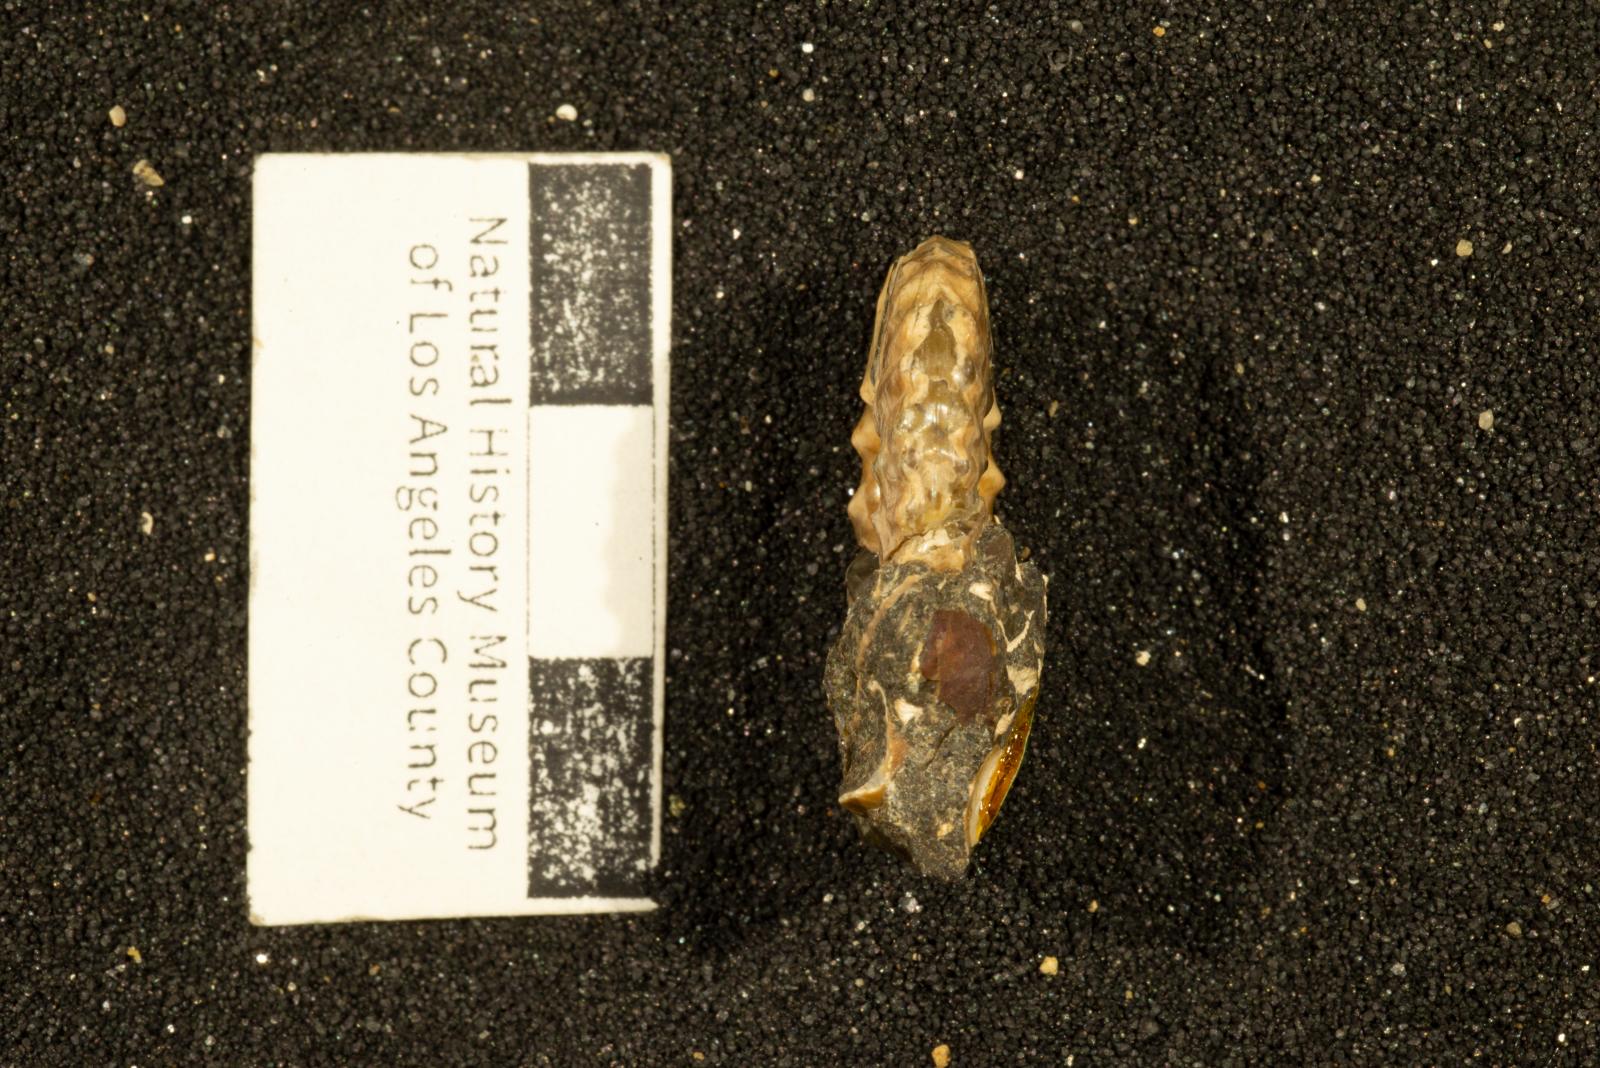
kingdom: Animalia
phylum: Mollusca
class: Cephalopoda
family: Collignoniceratidae
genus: Subprionocyclus
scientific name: Subprionocyclus
